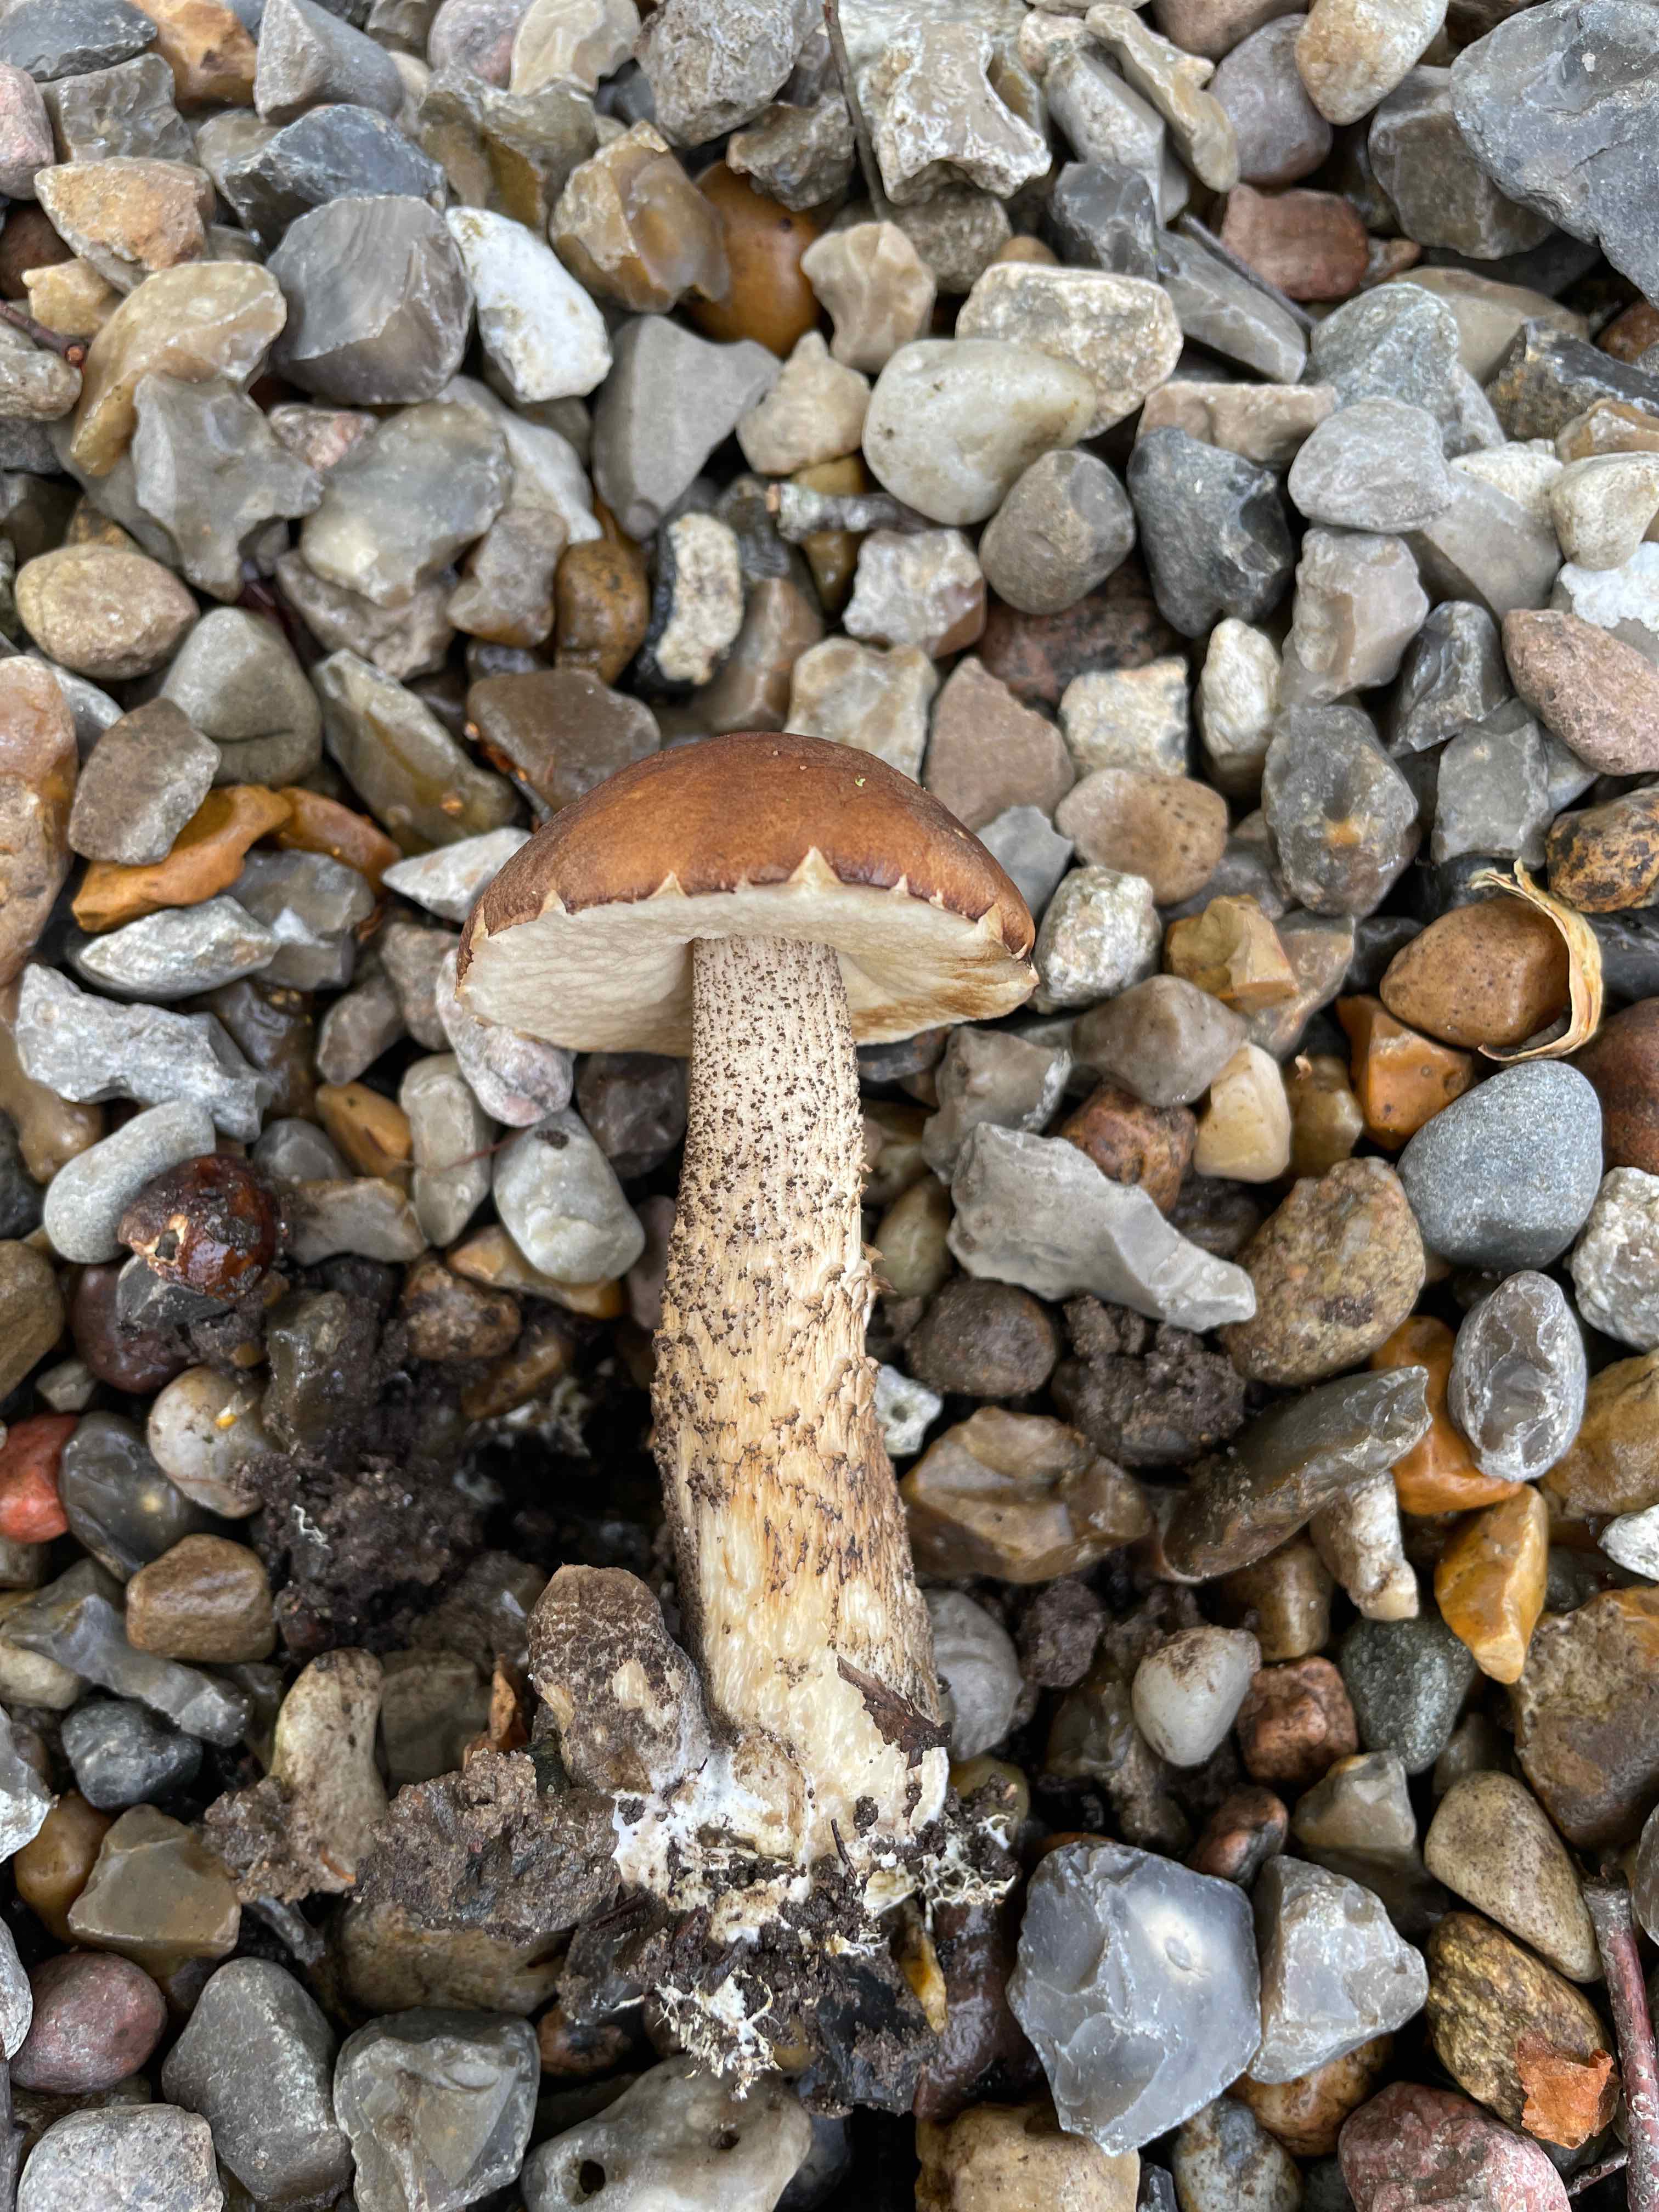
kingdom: Fungi
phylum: Basidiomycota
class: Agaricomycetes
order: Boletales
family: Boletaceae
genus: Leccinum
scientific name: Leccinum scabrum
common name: brun skælrørhat
